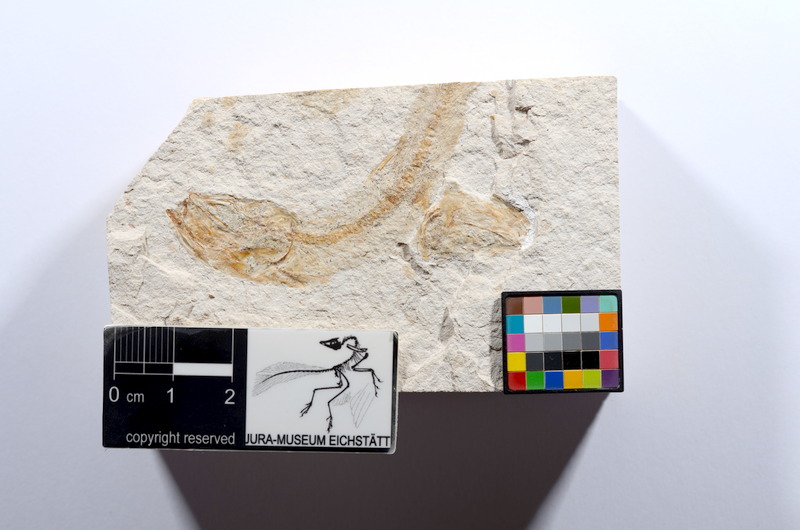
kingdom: Animalia
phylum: Chordata
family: Ascalaboidae
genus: Tharsis
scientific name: Tharsis dubius
